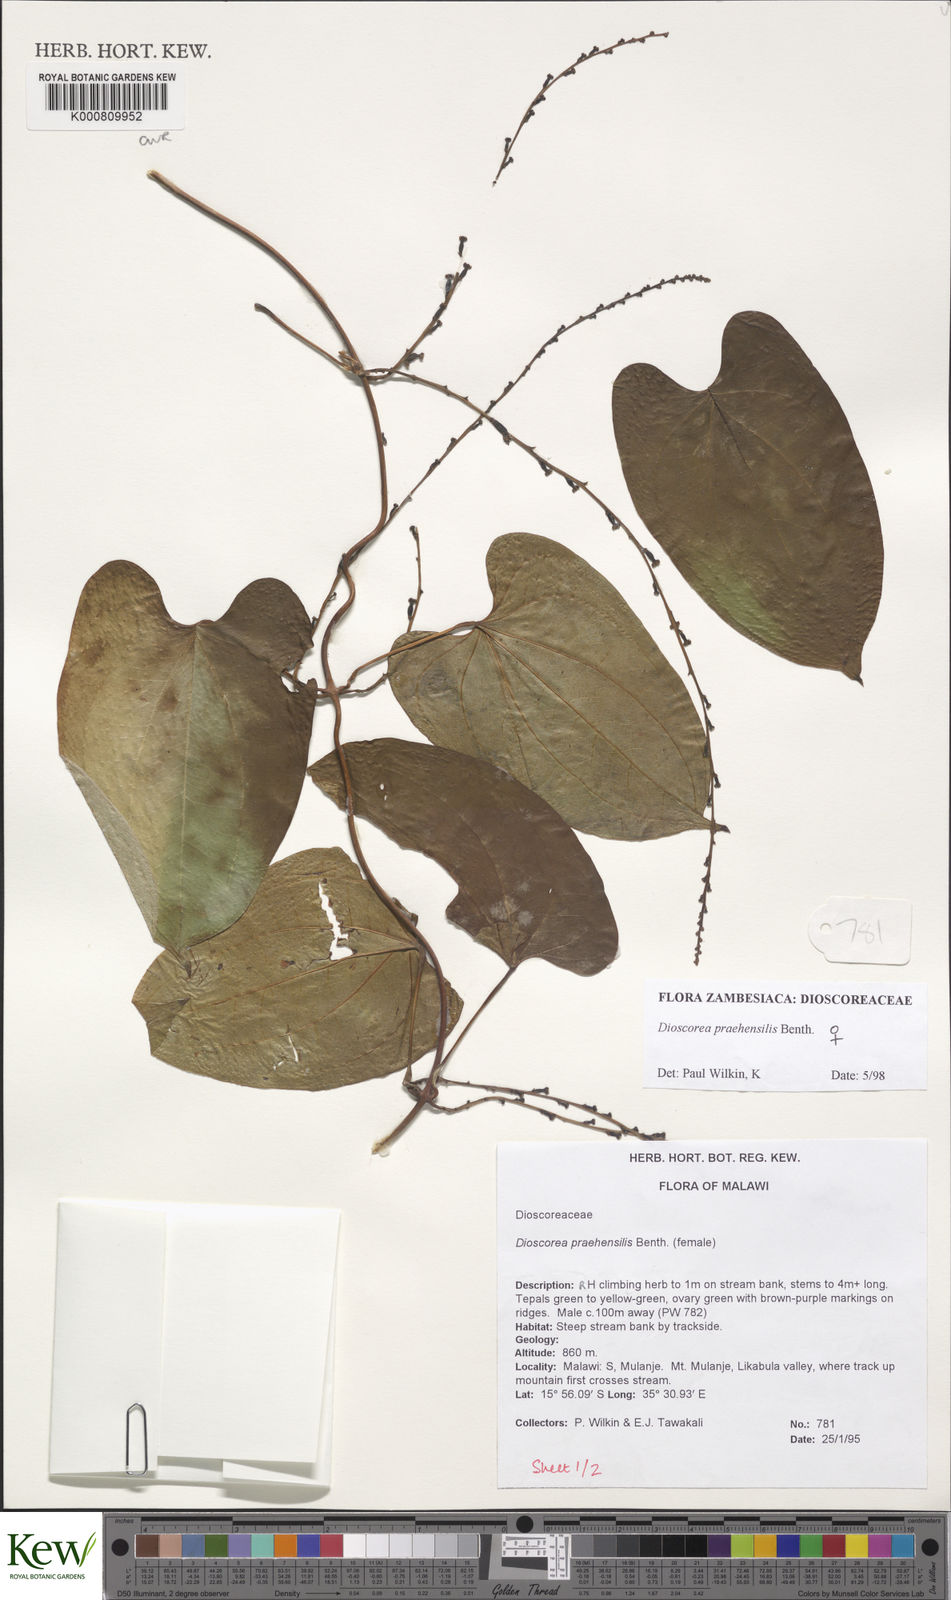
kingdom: Plantae
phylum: Tracheophyta
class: Liliopsida
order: Dioscoreales
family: Dioscoreaceae
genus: Dioscorea
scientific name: Dioscorea praehensilis
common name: Bush yam
